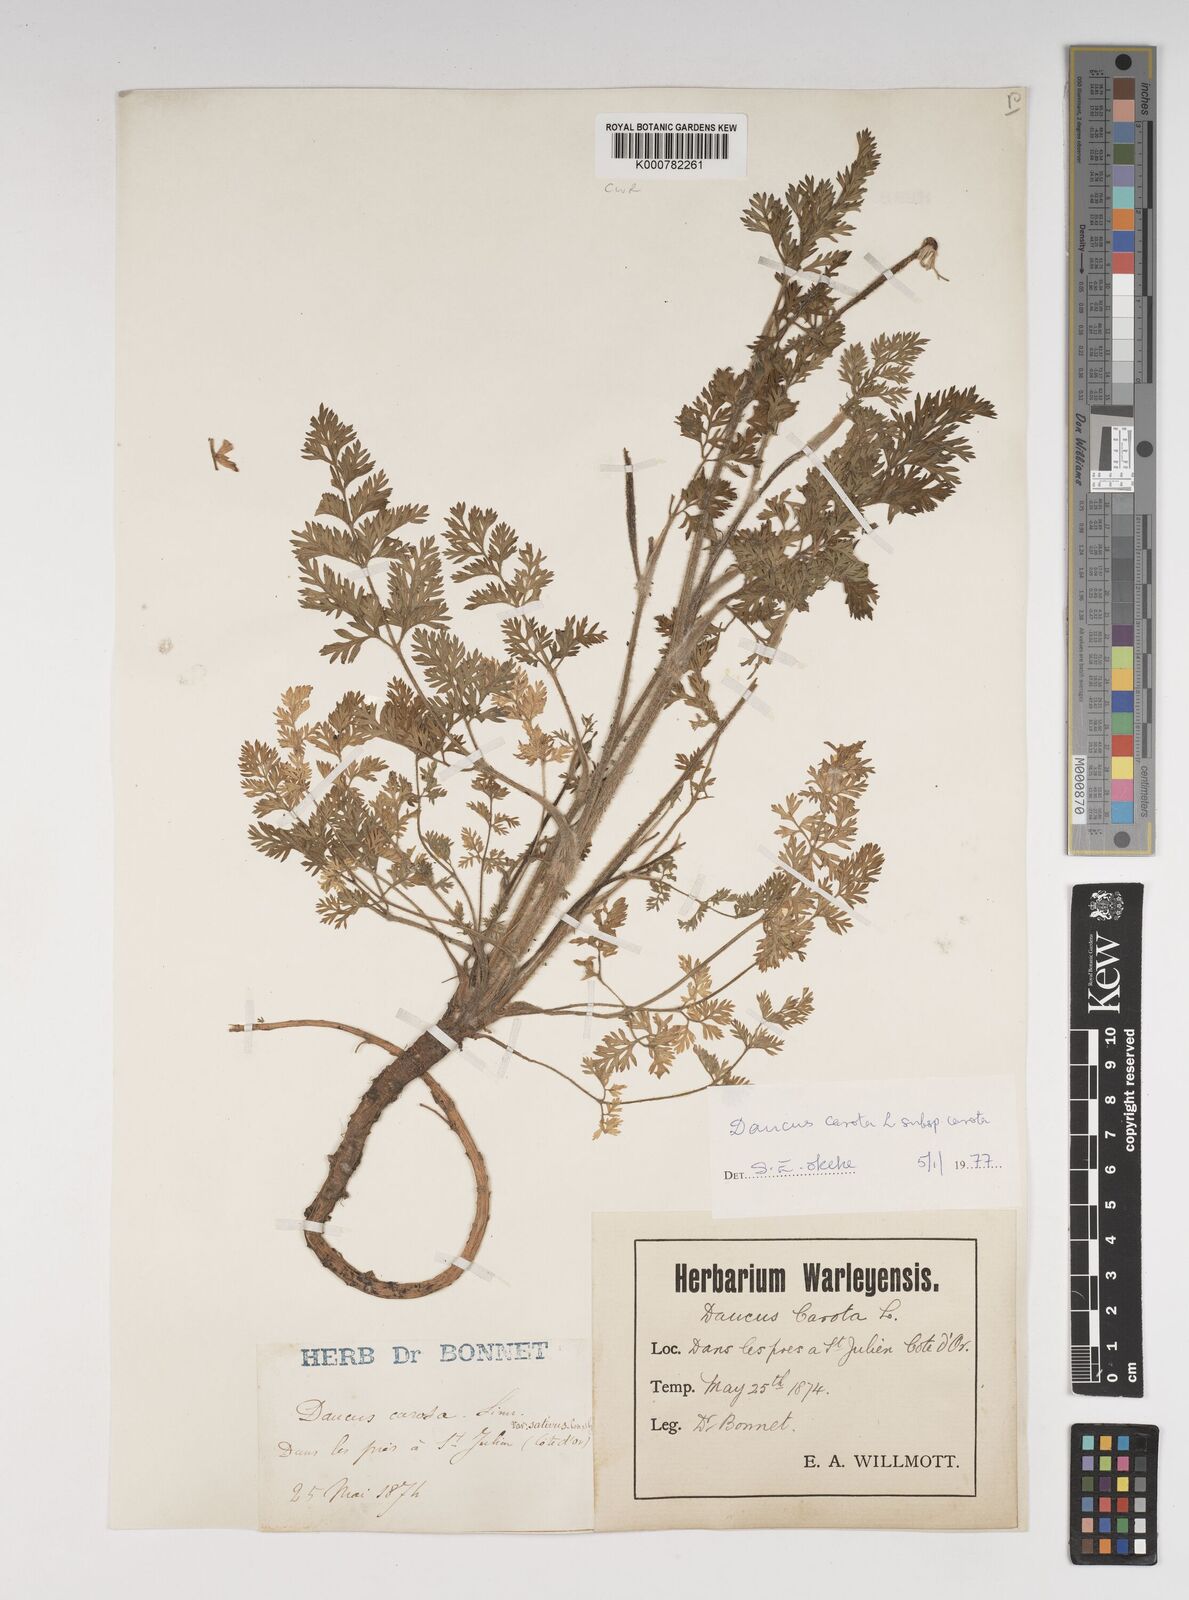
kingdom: Plantae
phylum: Tracheophyta
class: Magnoliopsida
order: Apiales
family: Apiaceae
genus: Daucus
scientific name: Daucus carota
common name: Wild carrot
